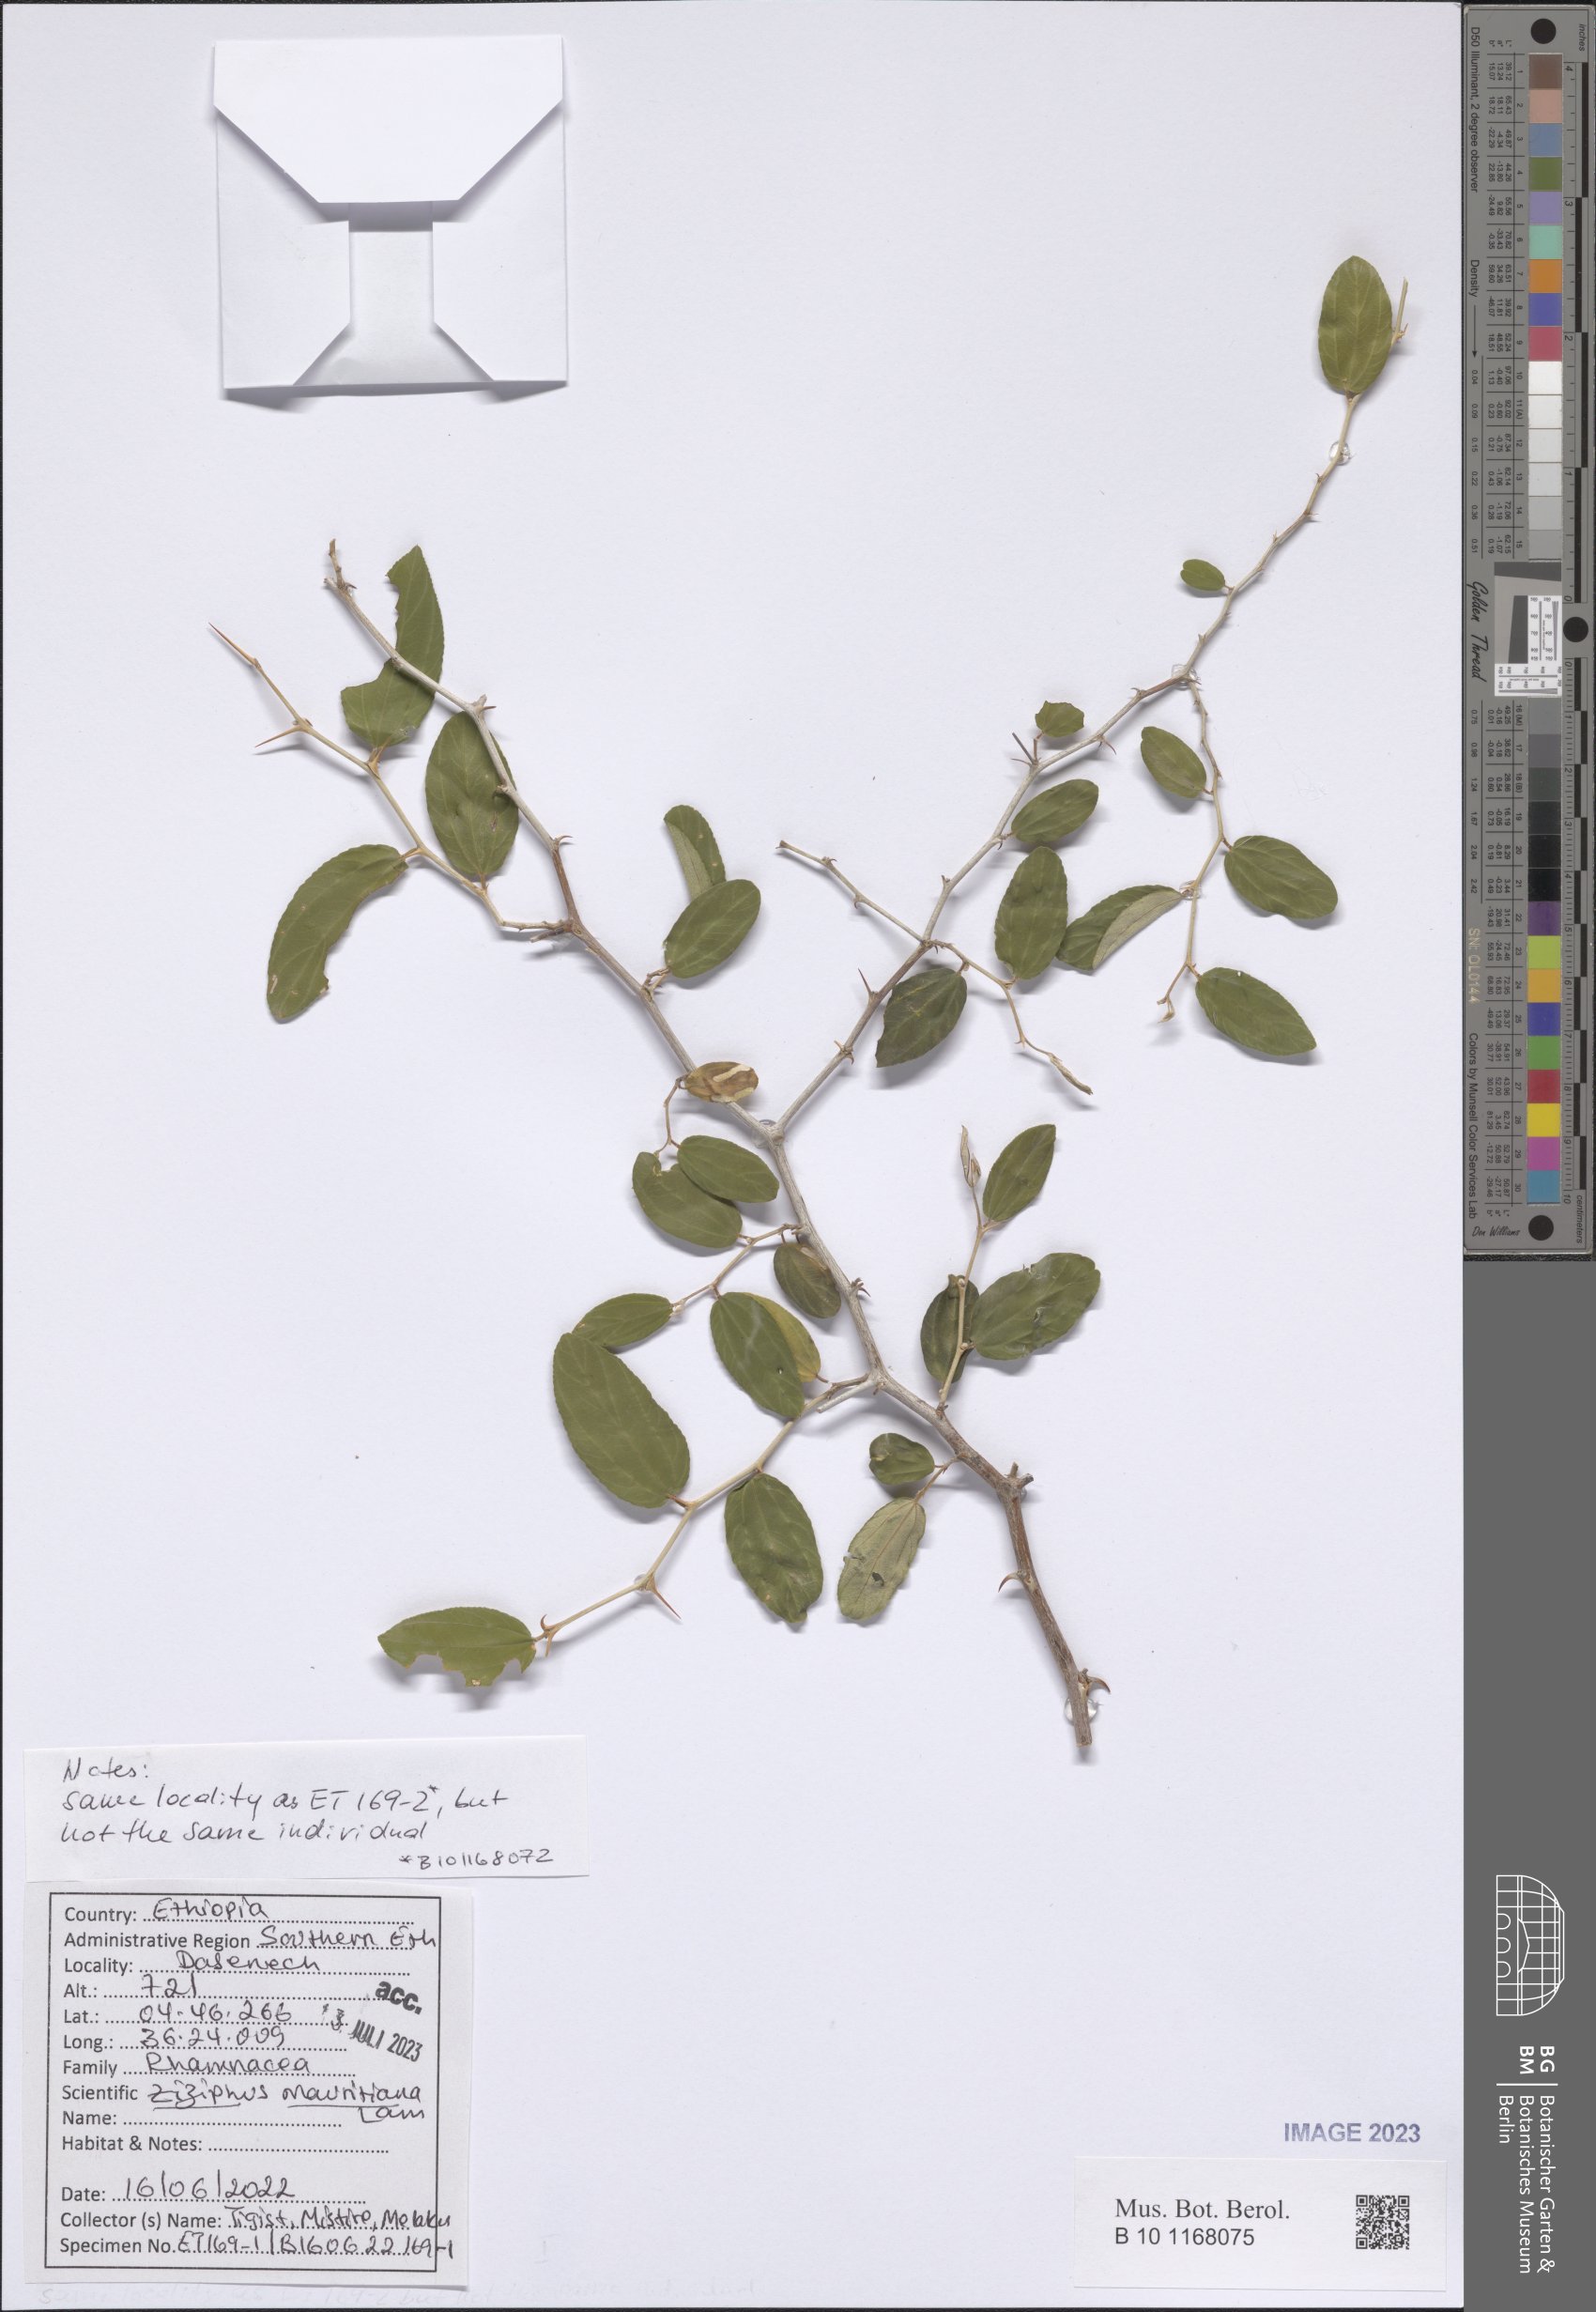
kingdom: Plantae
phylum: Tracheophyta
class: Magnoliopsida
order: Rosales
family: Rhamnaceae
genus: Ziziphus
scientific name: Ziziphus mauritiana
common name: Indian jujube
